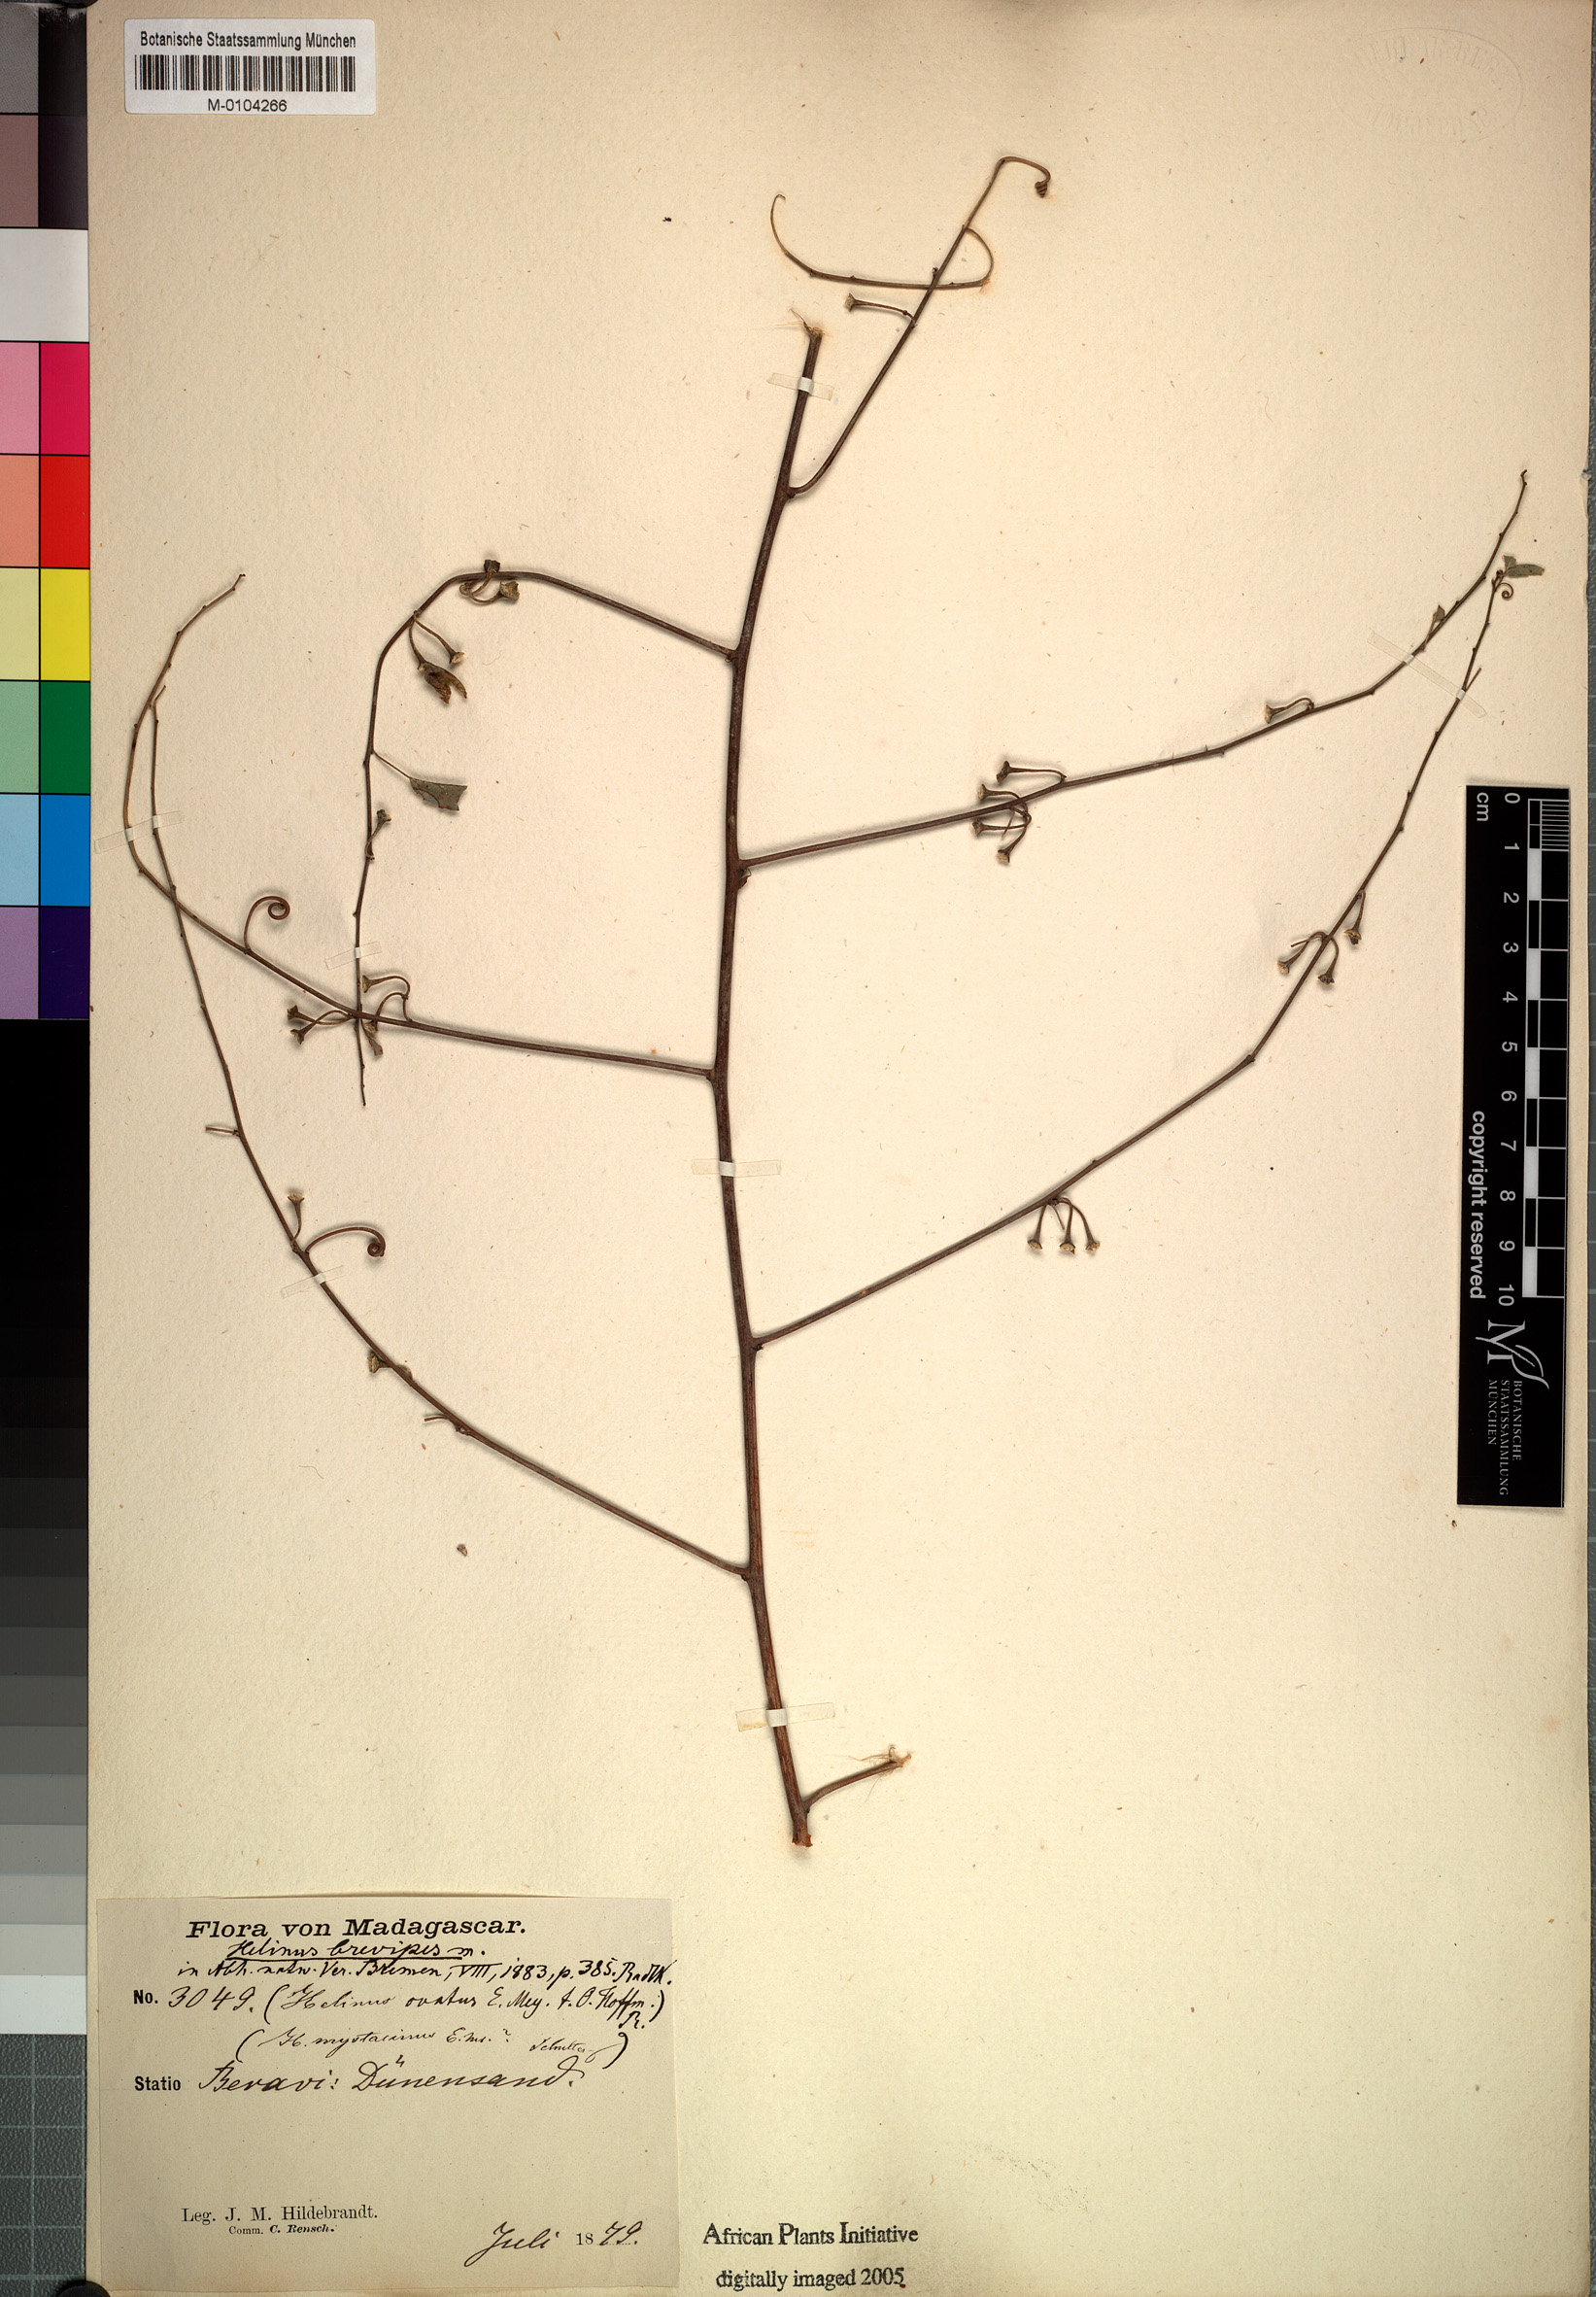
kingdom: Plantae
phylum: Tracheophyta
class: Magnoliopsida
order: Rosales
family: Rhamnaceae
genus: Helinus
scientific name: Helinus brevipes
